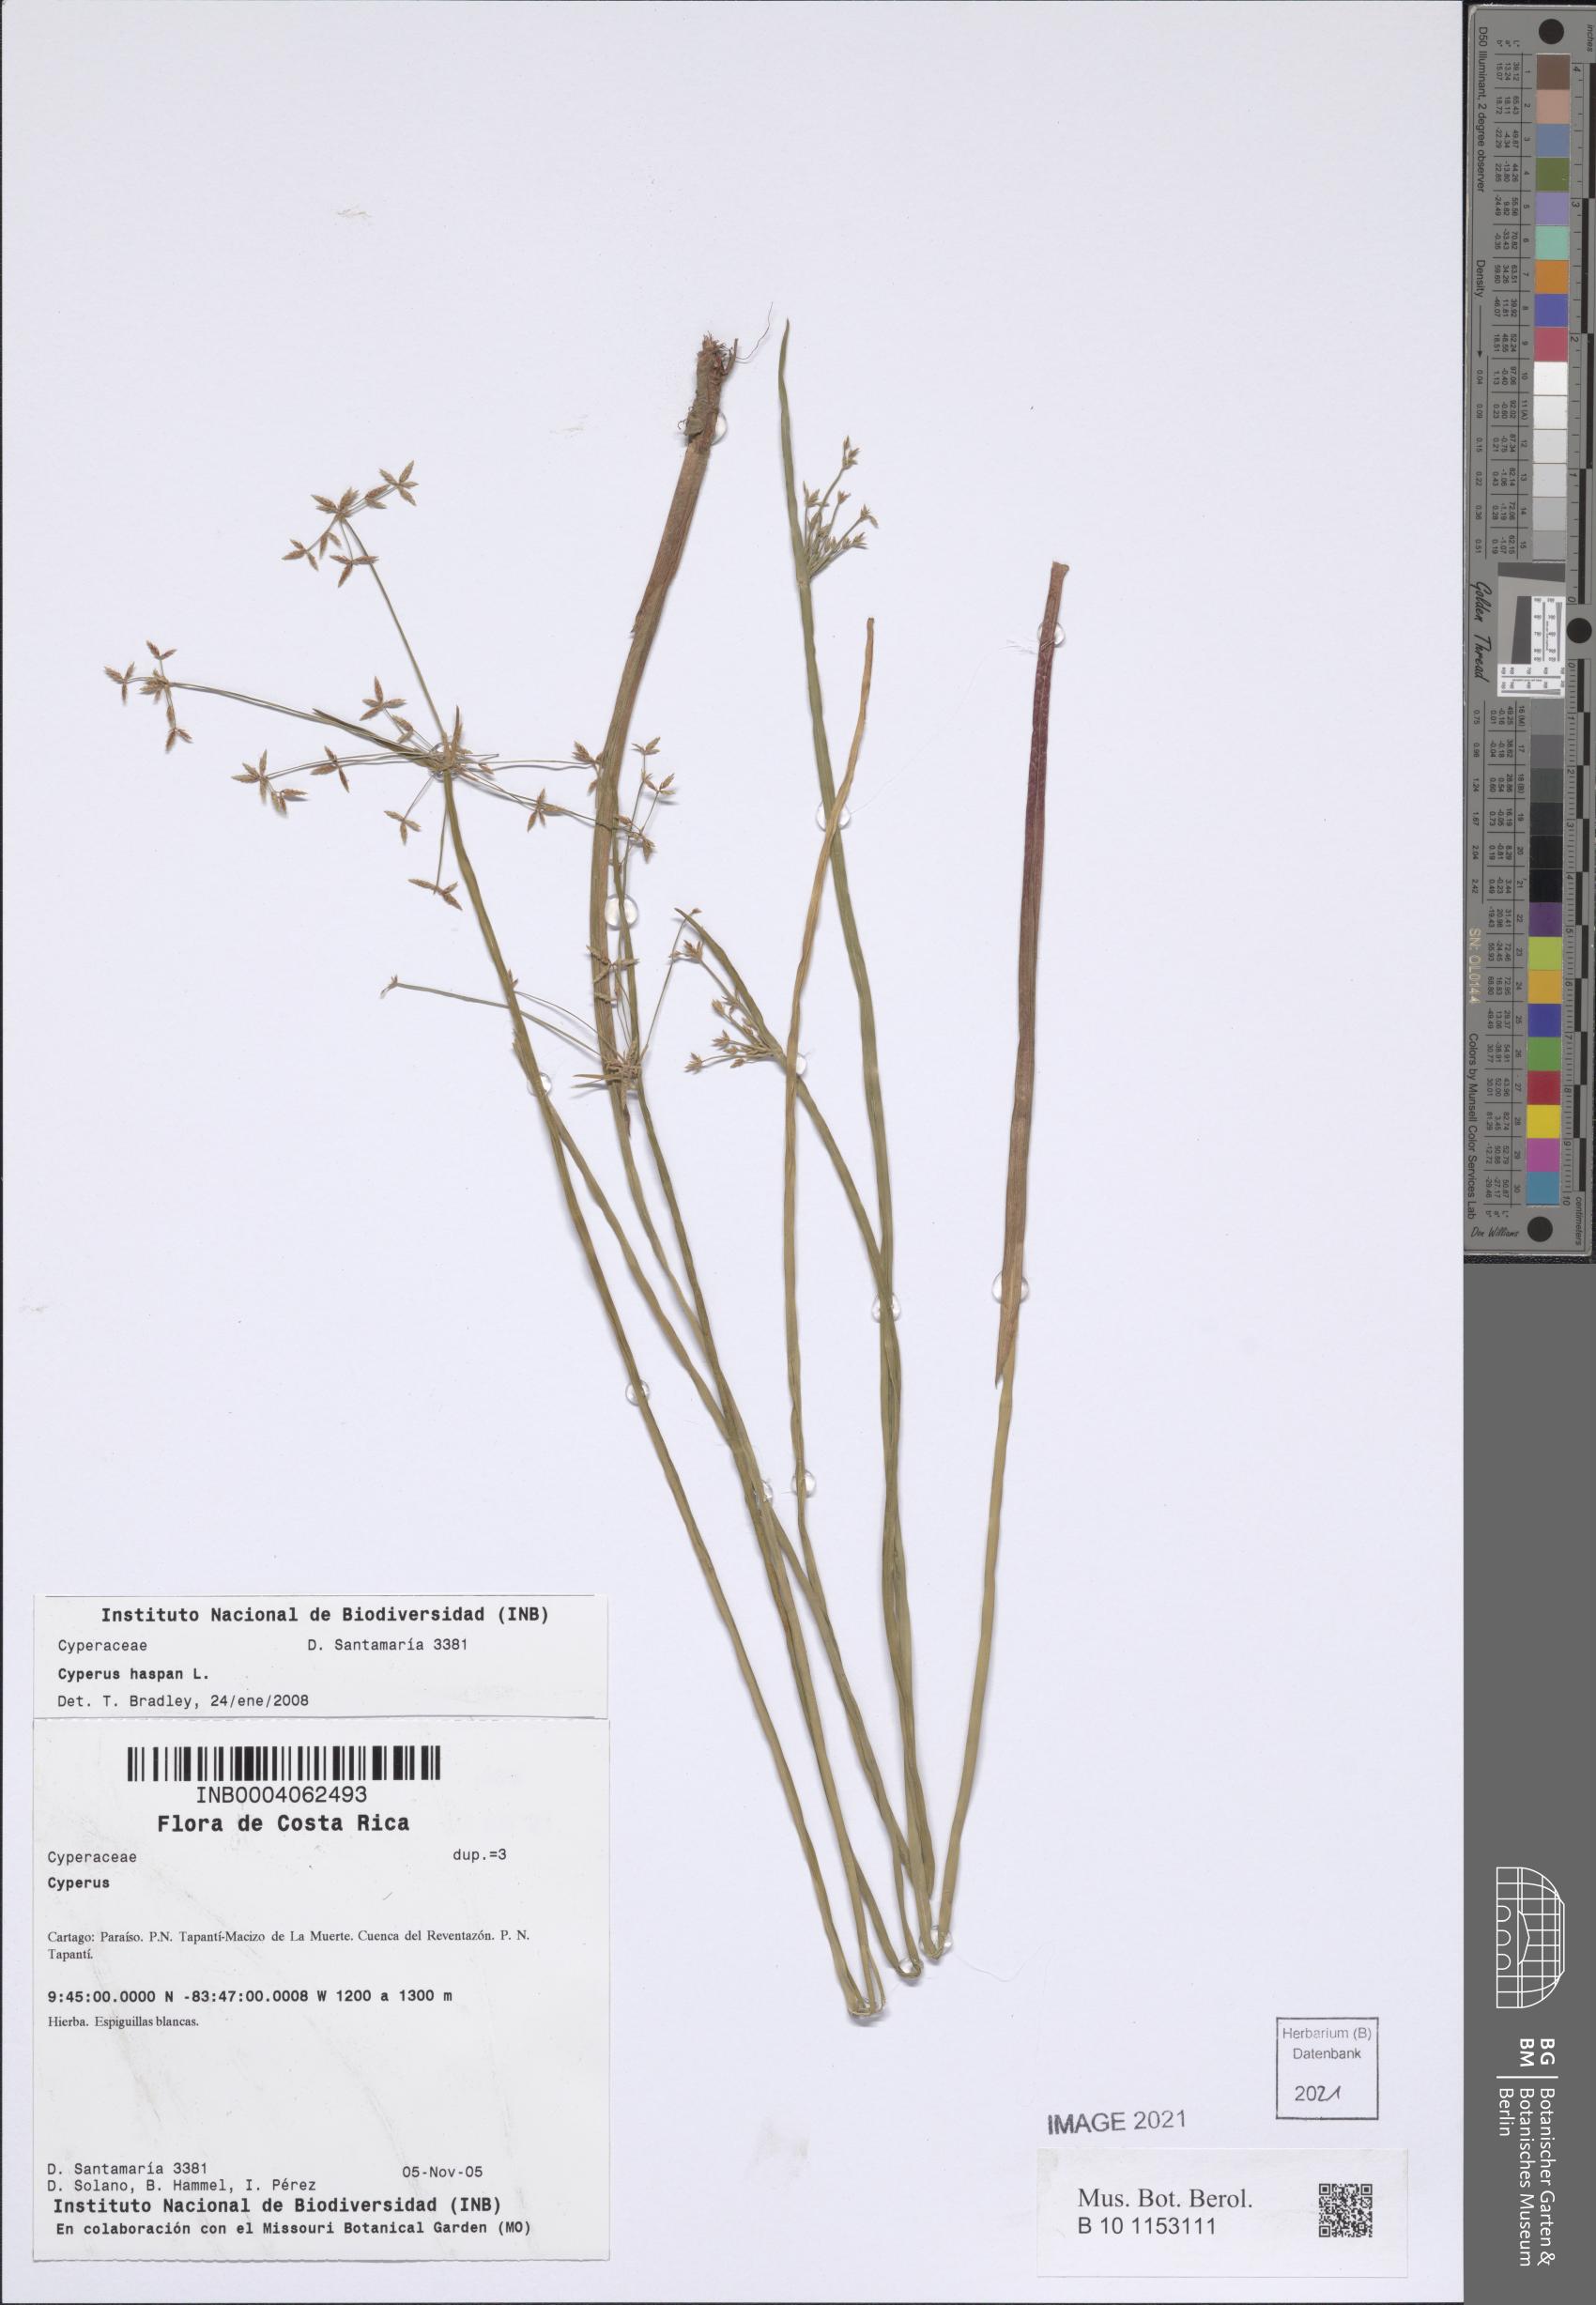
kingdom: Plantae
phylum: Tracheophyta
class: Liliopsida
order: Poales
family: Cyperaceae
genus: Cyperus
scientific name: Cyperus haspan
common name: Haspan flatsedge
